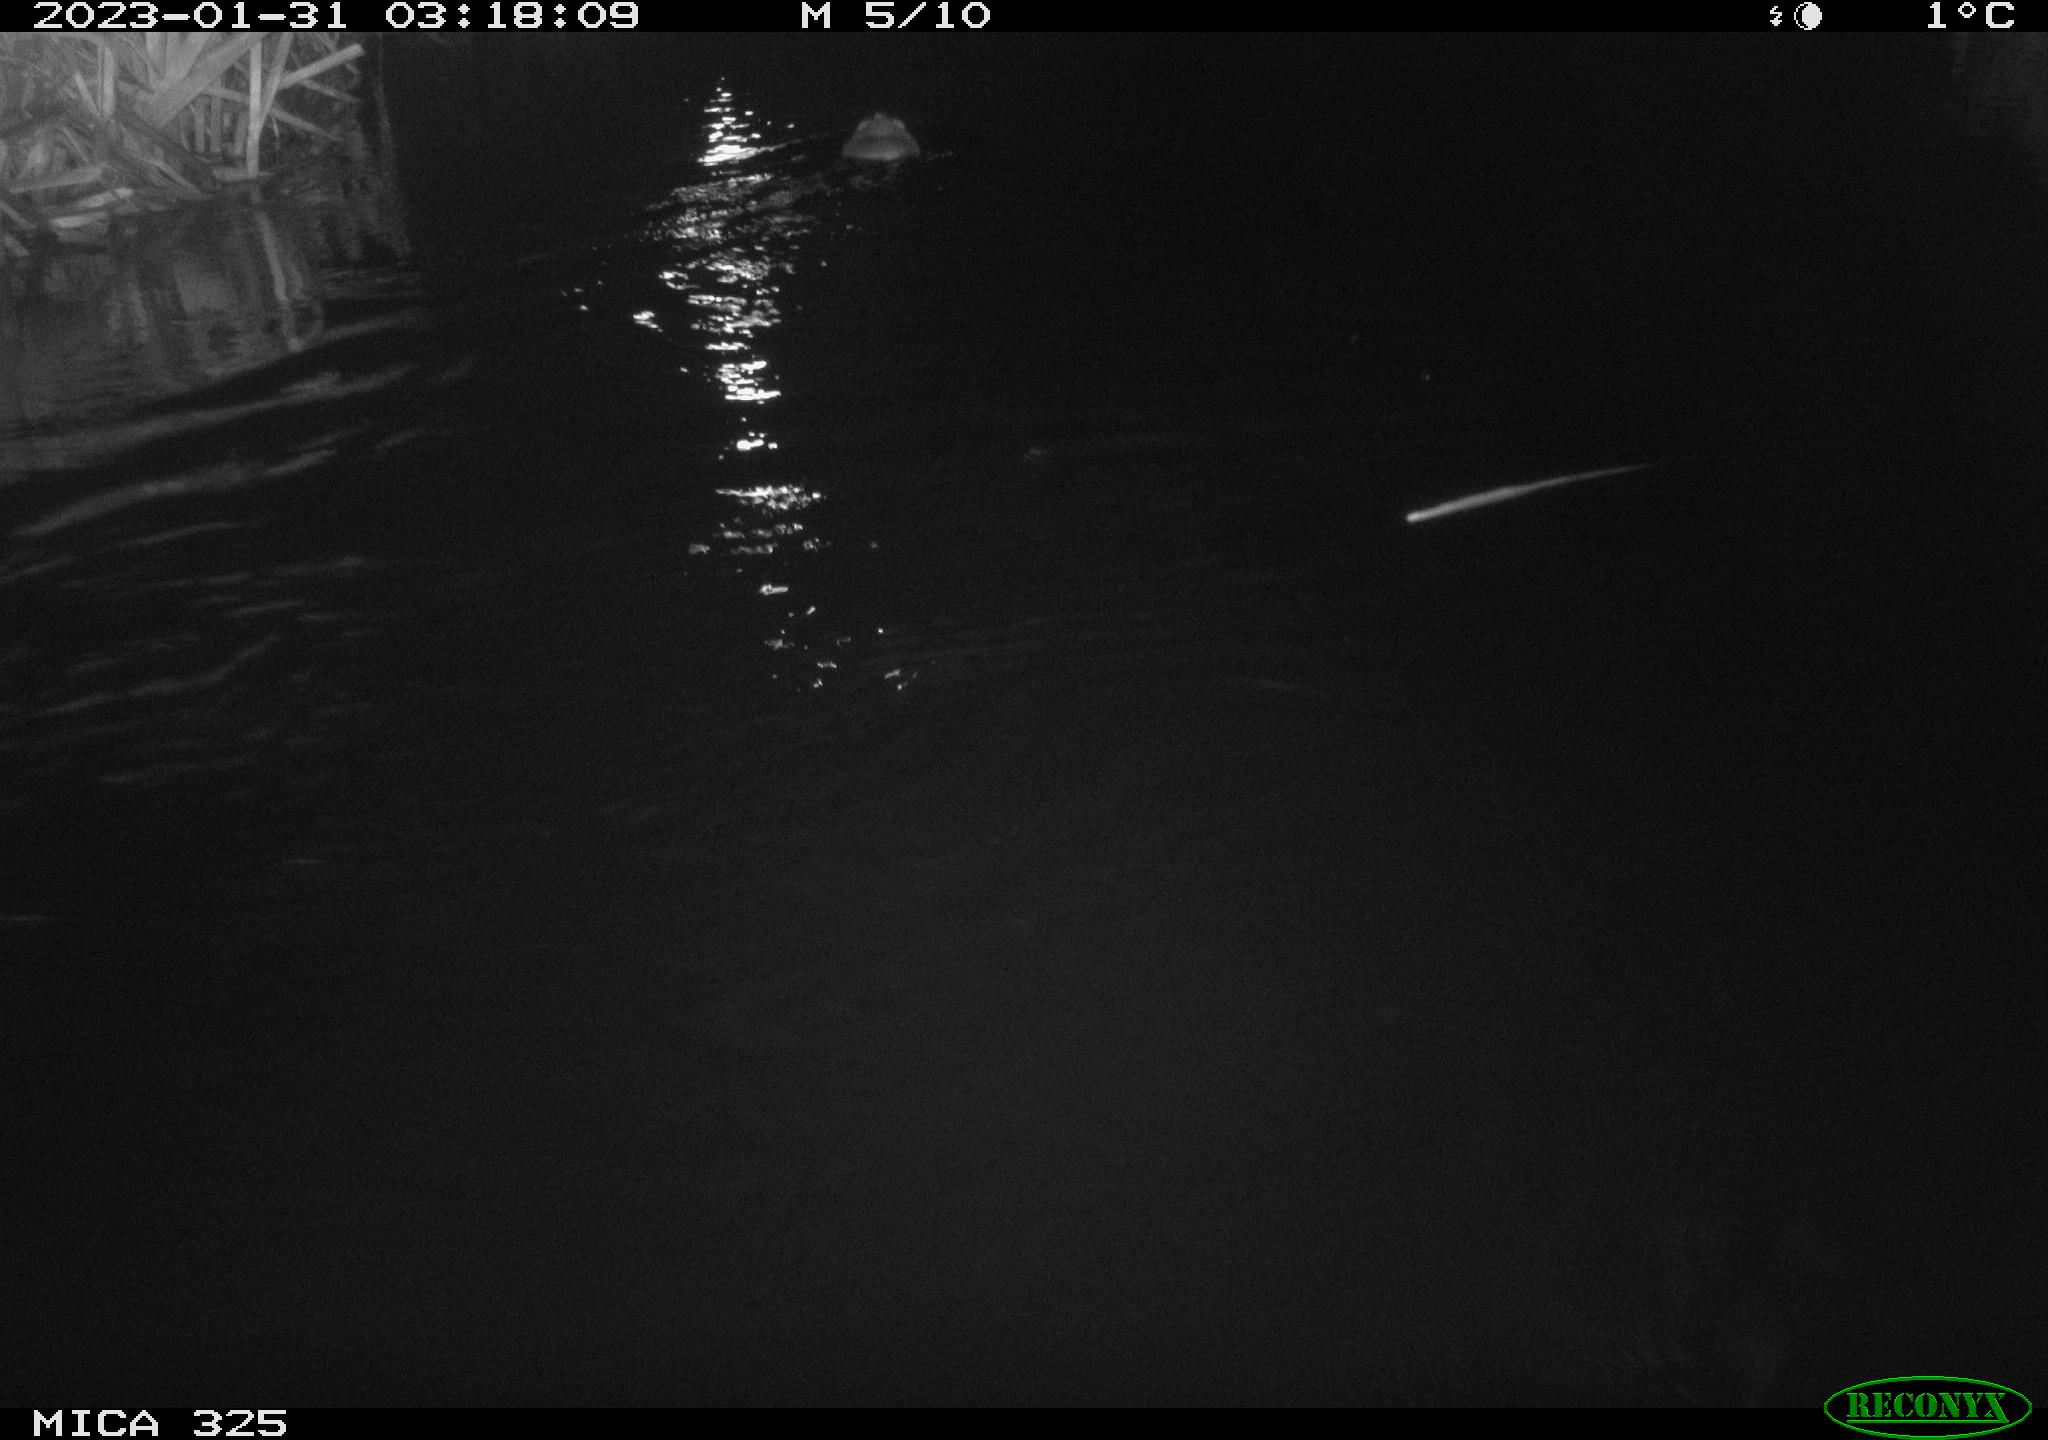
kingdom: Animalia
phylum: Chordata
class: Mammalia
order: Rodentia
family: Cricetidae
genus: Ondatra
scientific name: Ondatra zibethicus
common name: Muskrat
